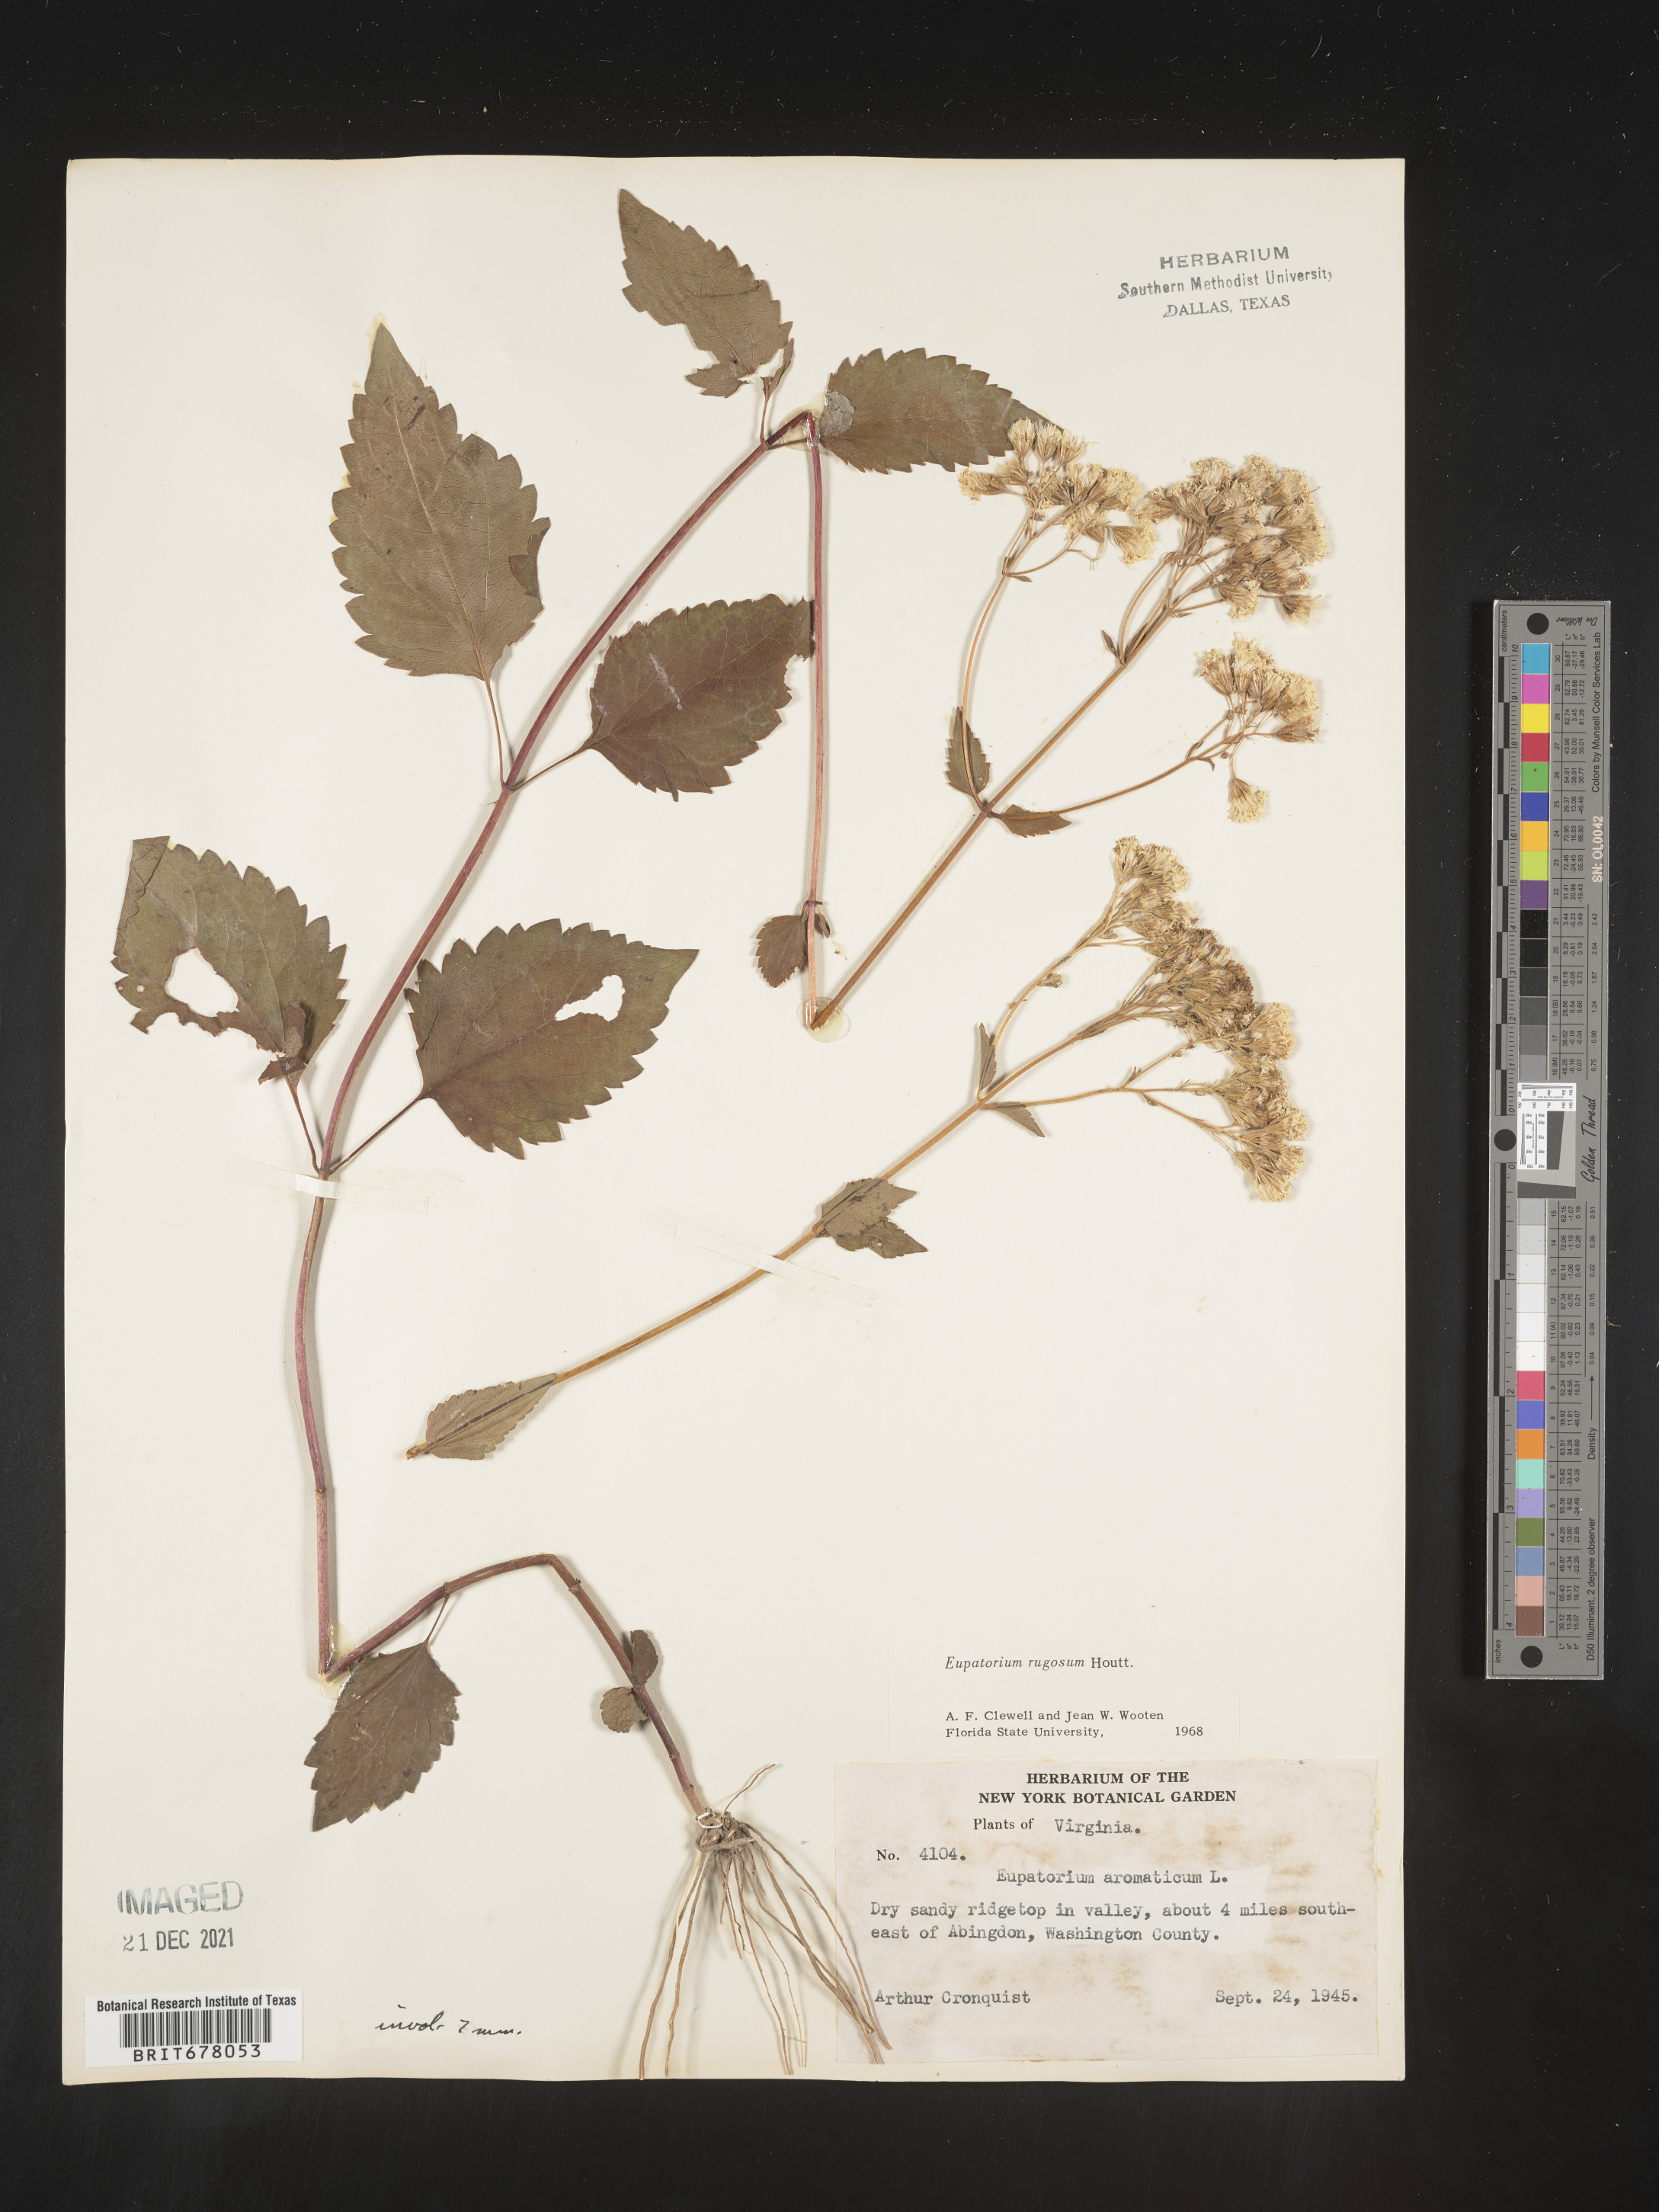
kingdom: Plantae
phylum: Tracheophyta
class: Magnoliopsida
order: Asterales
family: Asteraceae
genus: Eupatorium
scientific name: Eupatorium
